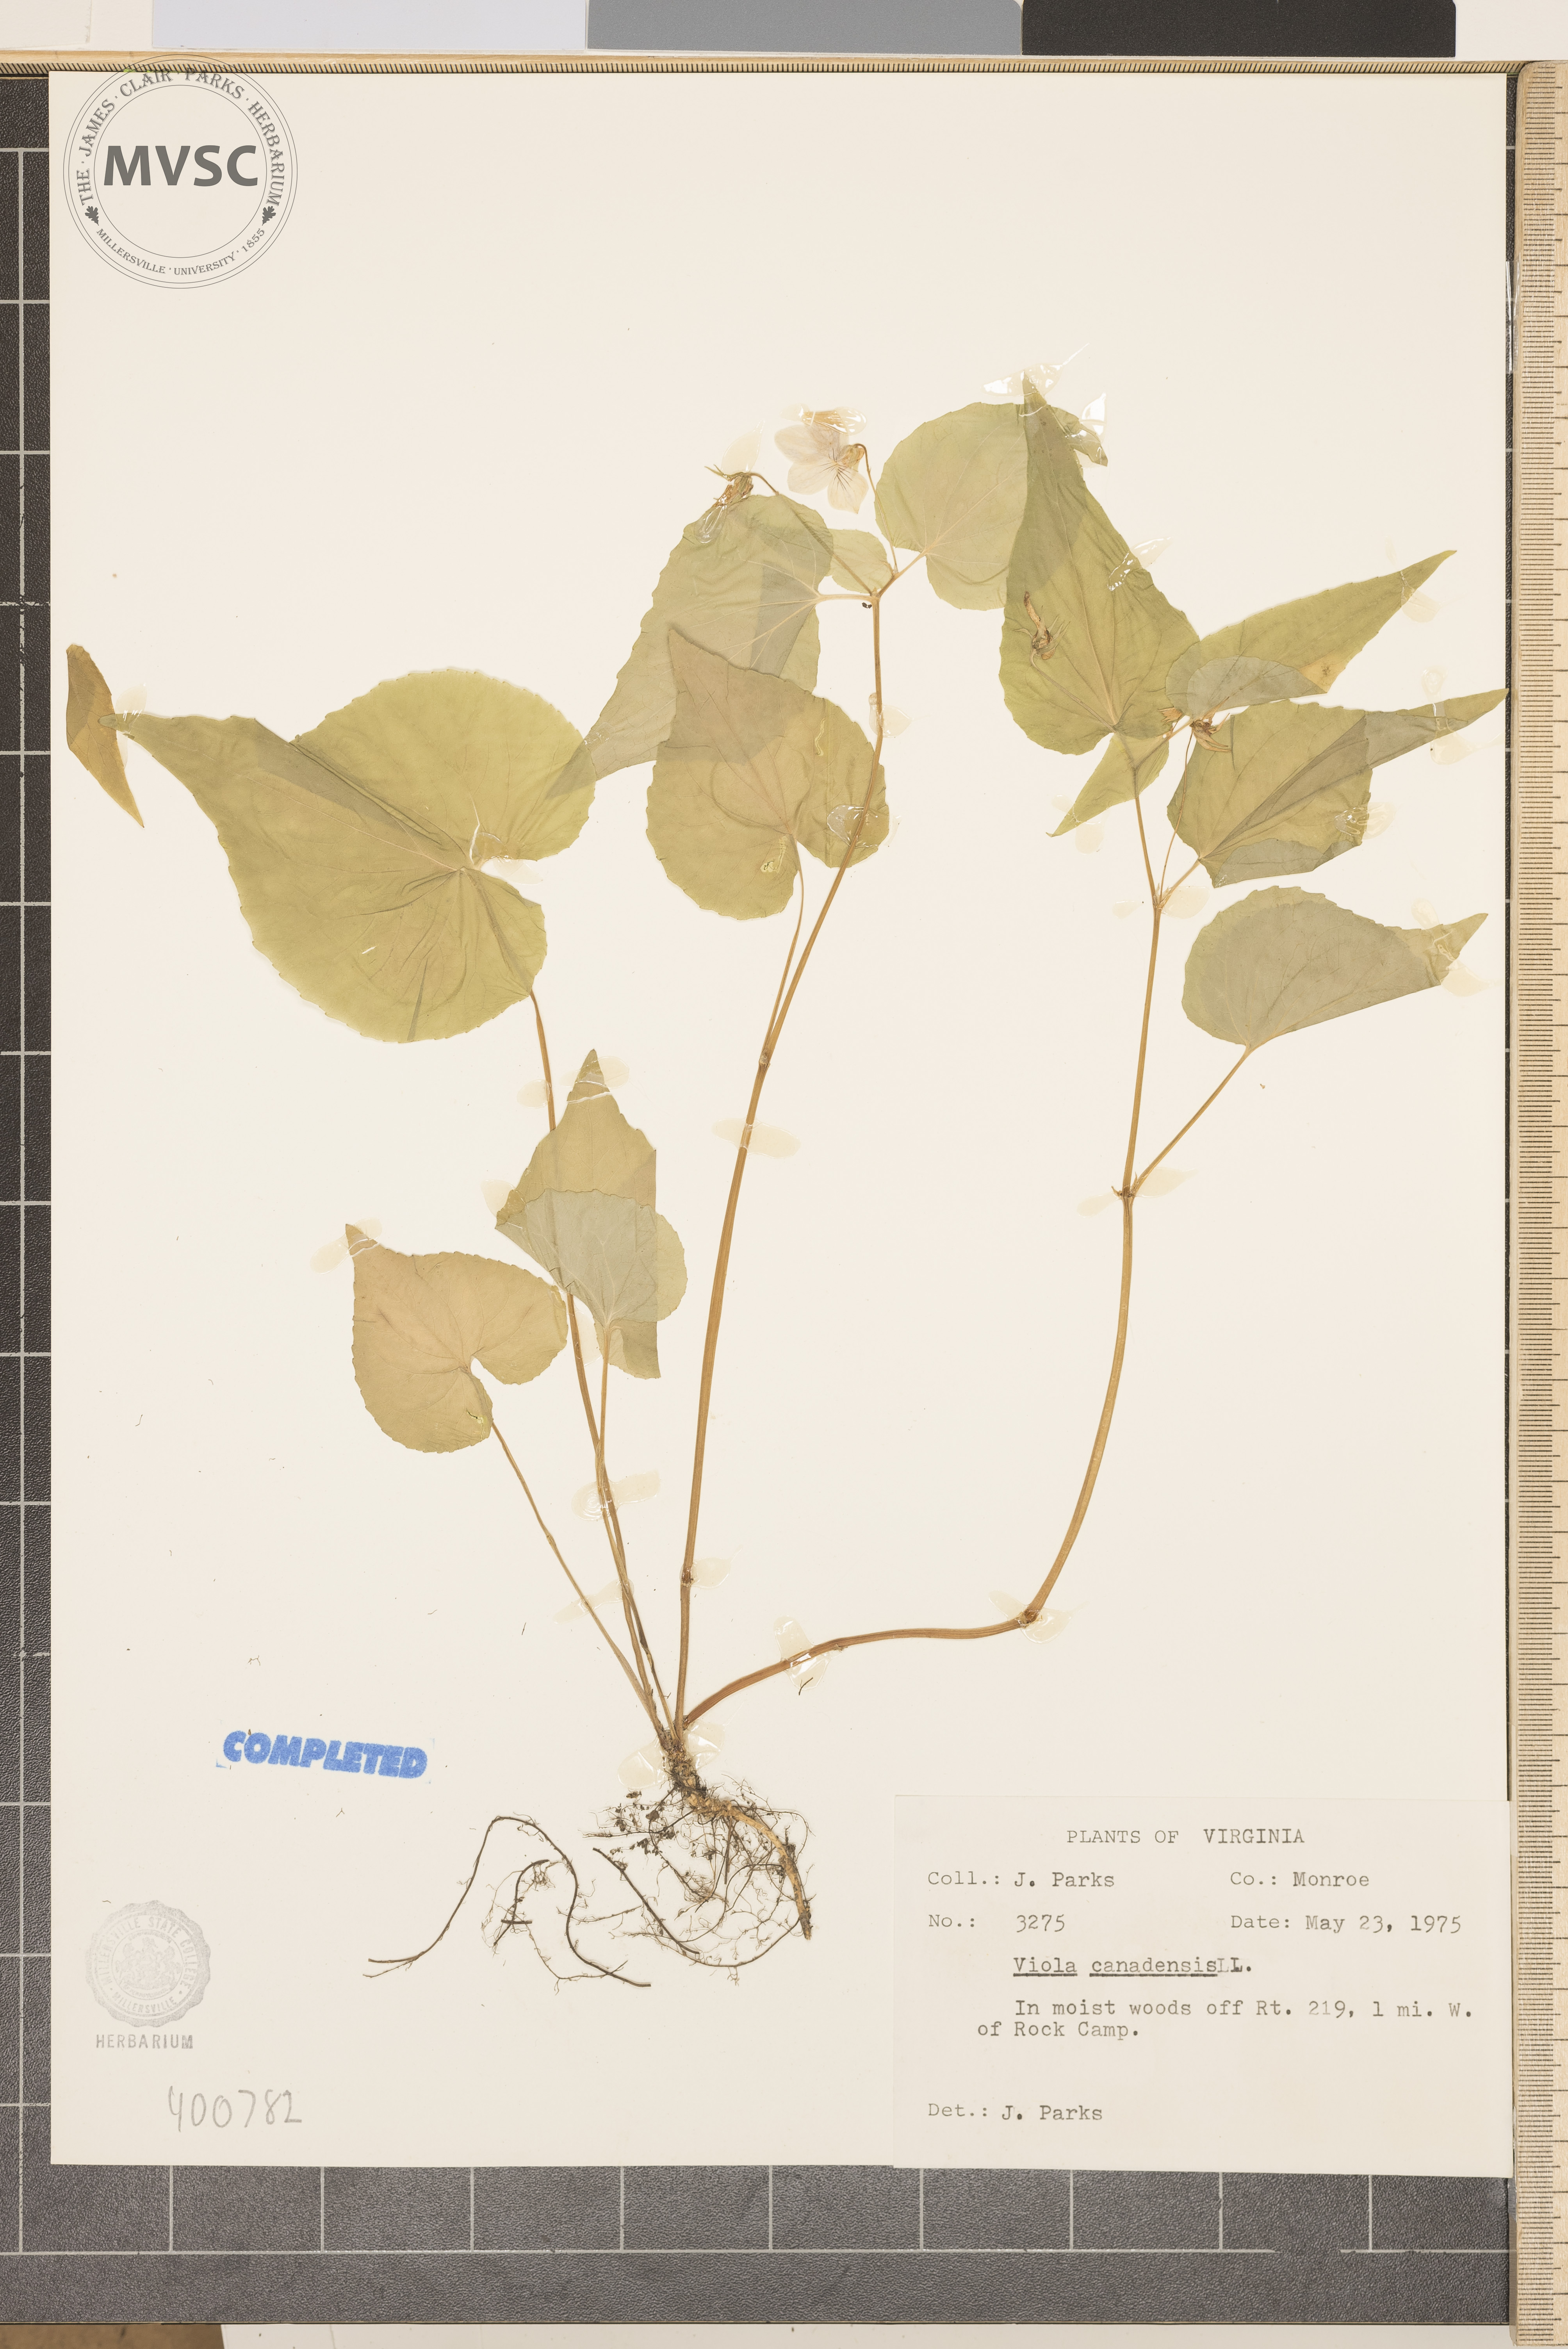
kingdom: Plantae
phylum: Tracheophyta
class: Magnoliopsida
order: Malpighiales
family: Violaceae
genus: Viola
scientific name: Viola canadensis
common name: violet
